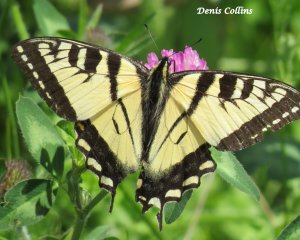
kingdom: Animalia
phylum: Arthropoda
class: Insecta
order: Lepidoptera
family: Papilionidae
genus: Pterourus
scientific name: Pterourus canadensis
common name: Canadian Tiger Swallowtail
